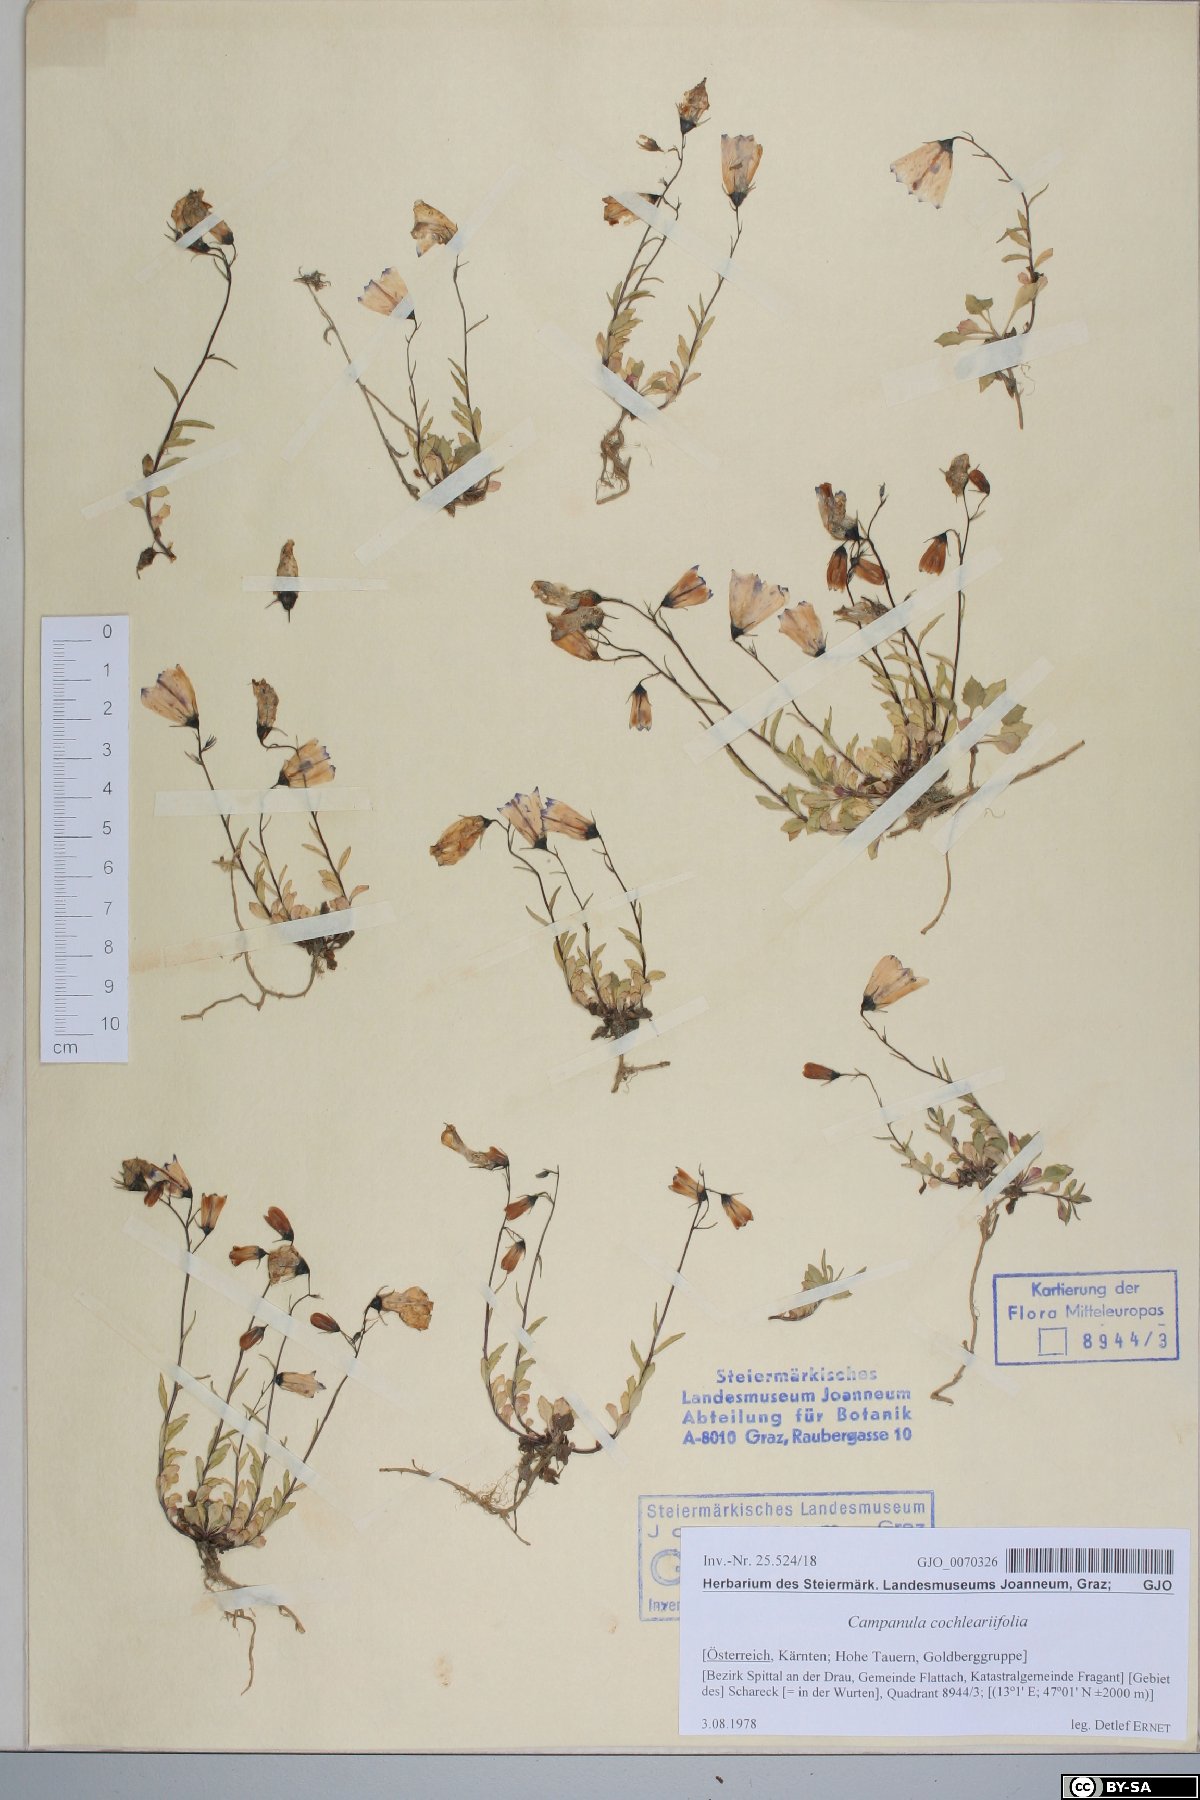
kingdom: Plantae
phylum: Tracheophyta
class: Magnoliopsida
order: Asterales
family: Campanulaceae
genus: Campanula
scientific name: Campanula cochleariifolia
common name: Fairies'-thimbles
